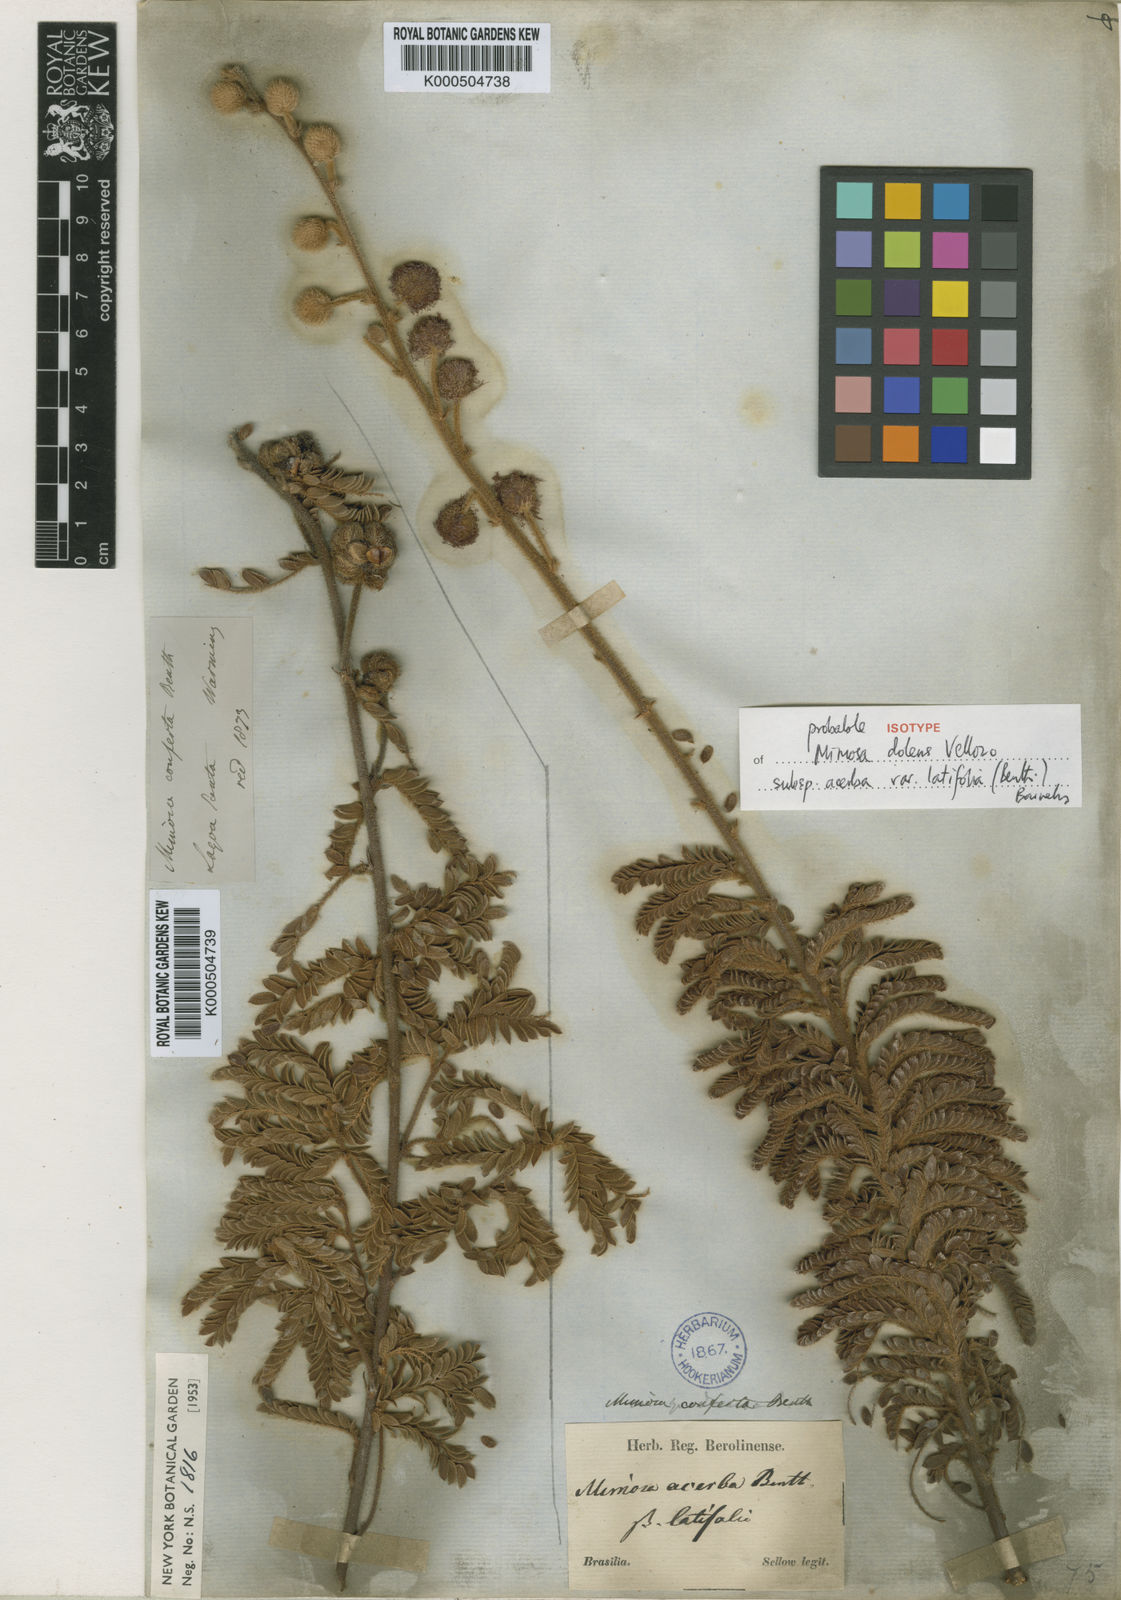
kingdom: Plantae
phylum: Tracheophyta
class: Magnoliopsida
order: Fabales
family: Fabaceae
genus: Mimosa
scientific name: Mimosa dolens
